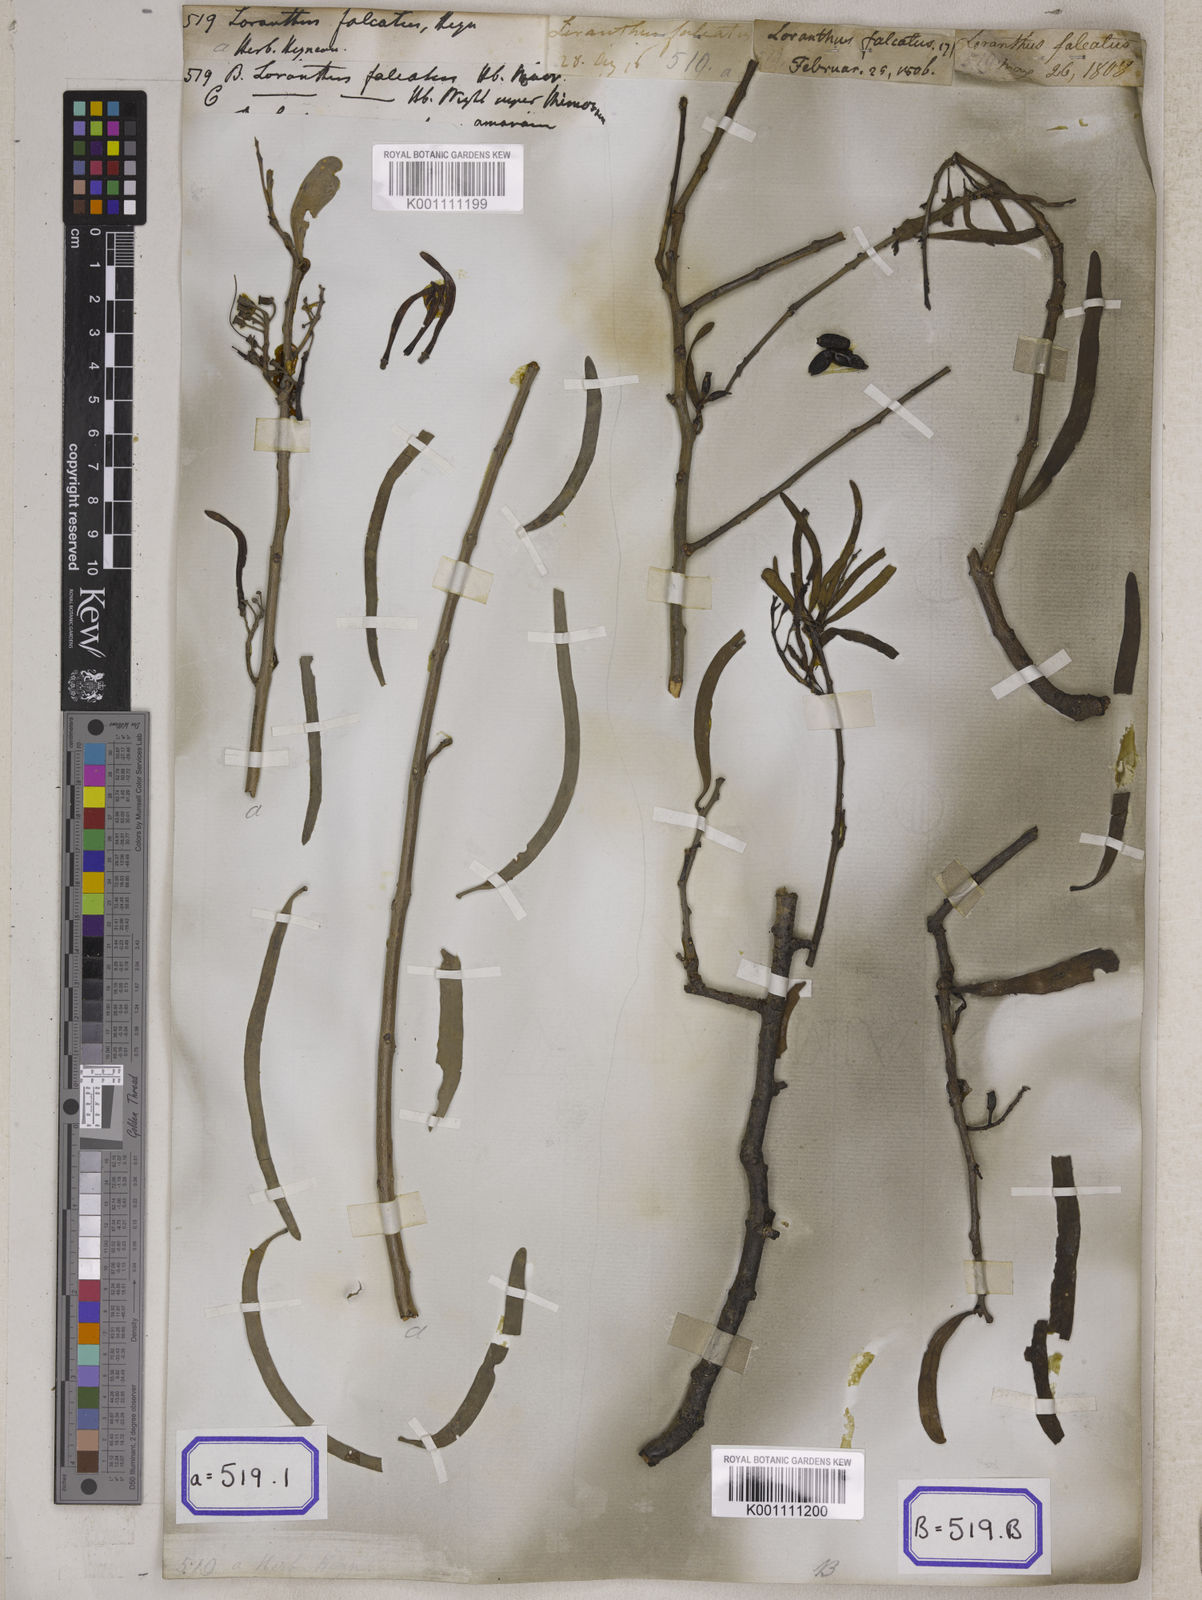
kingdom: Plantae
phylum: Tracheophyta
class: Magnoliopsida
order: Santalales
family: Loranthaceae
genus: Loranthus
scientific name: Loranthus
